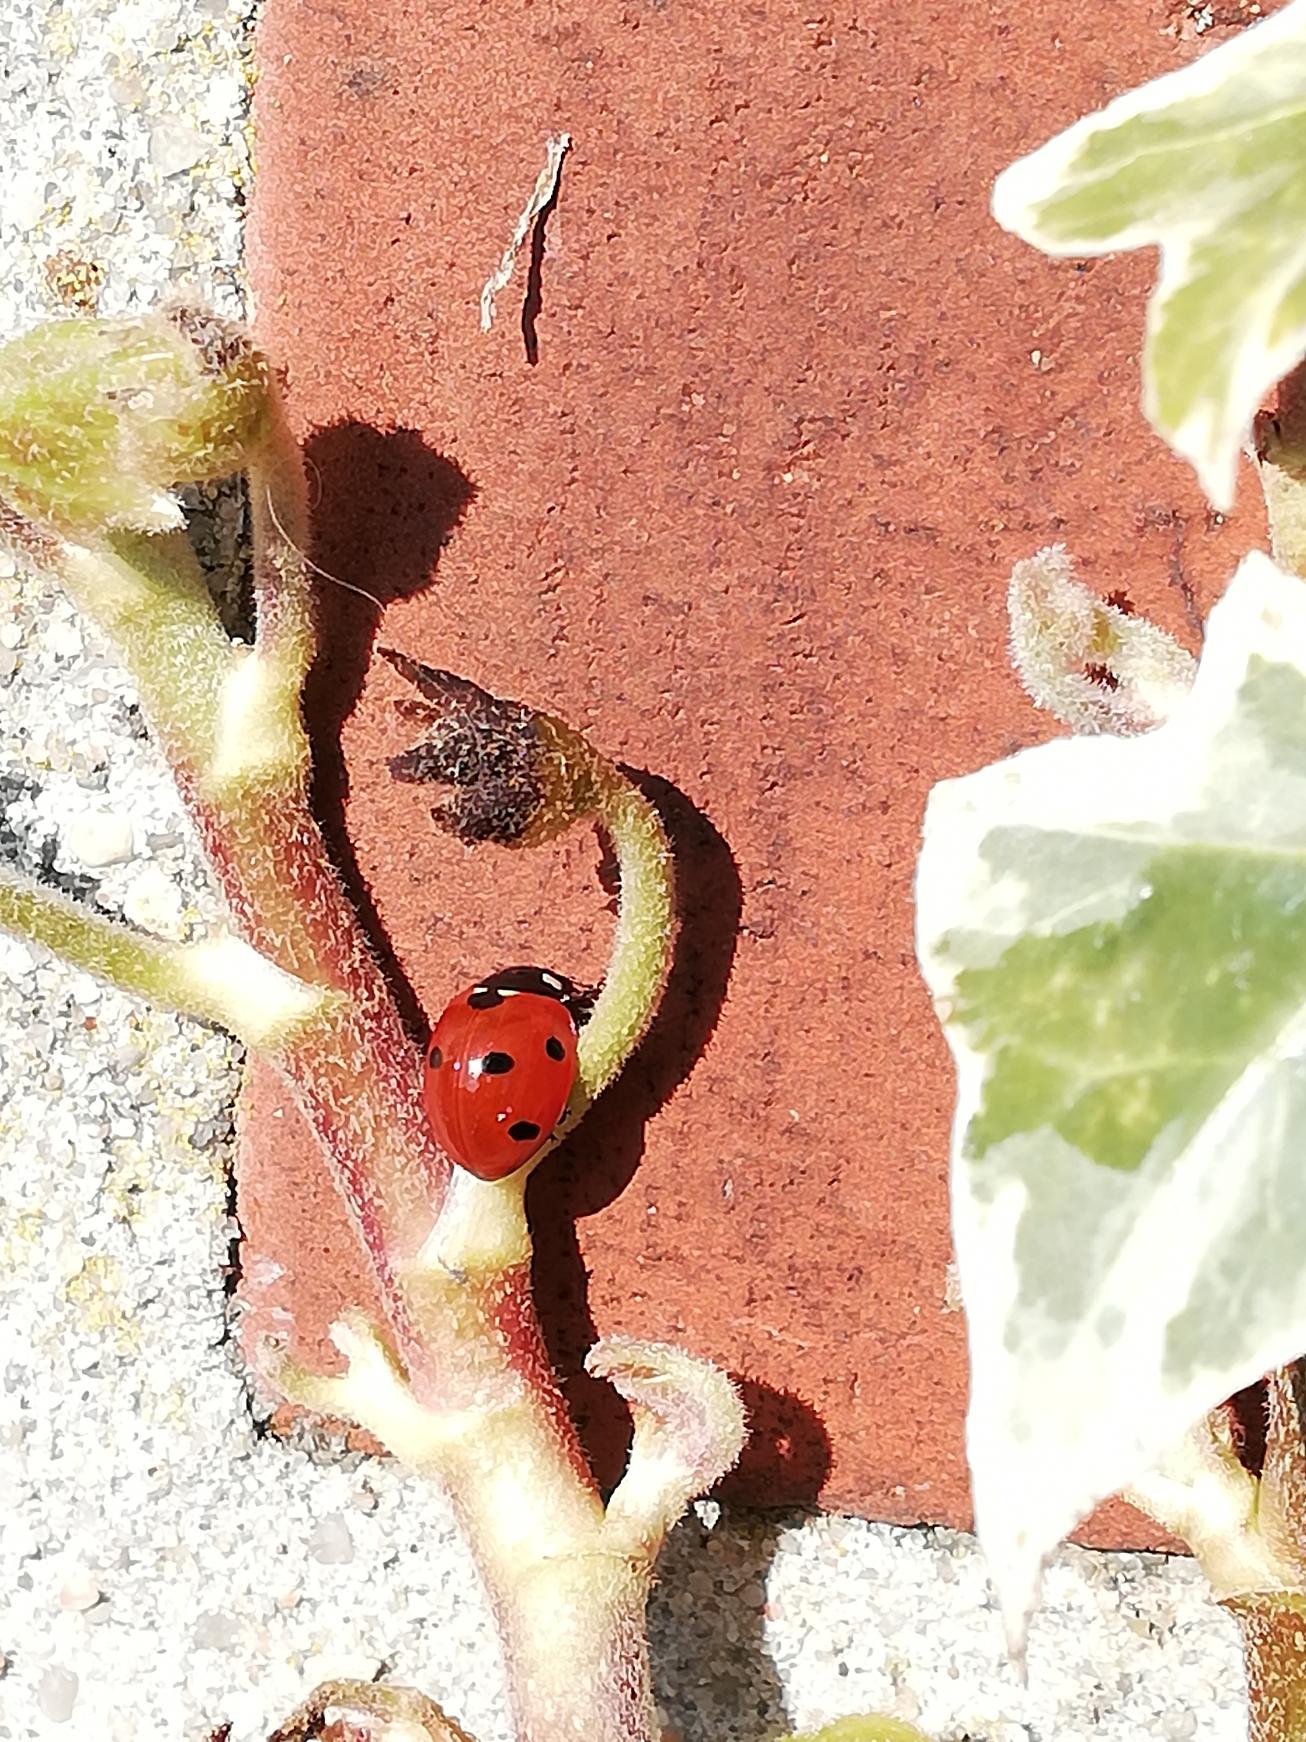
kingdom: Animalia
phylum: Arthropoda
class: Insecta
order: Coleoptera
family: Coccinellidae
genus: Coccinella
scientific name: Coccinella septempunctata
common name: Syvplettet mariehøne
